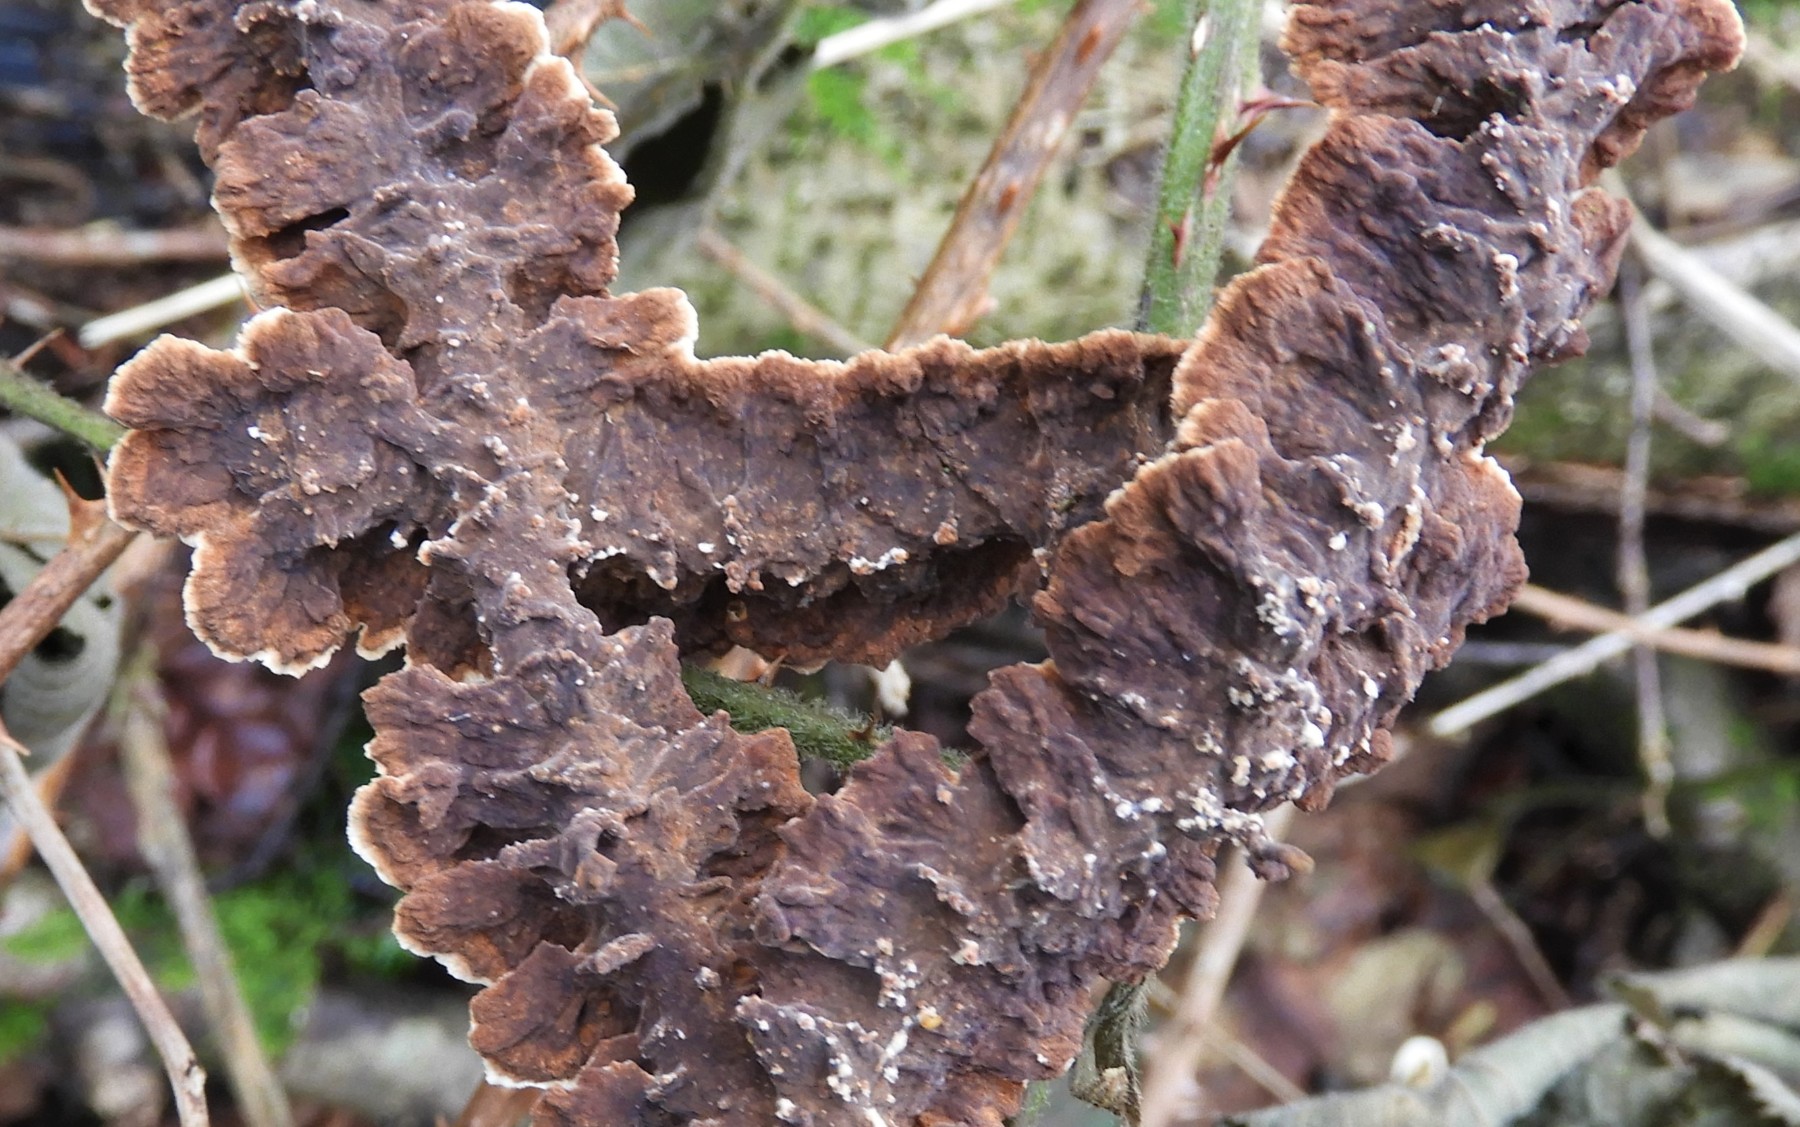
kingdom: Fungi
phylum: Basidiomycota
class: Agaricomycetes
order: Hymenochaetales
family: Hymenochaetaceae
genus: Hydnoporia
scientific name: Hydnoporia tabacina
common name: tobaksbrun ruslædersvamp
